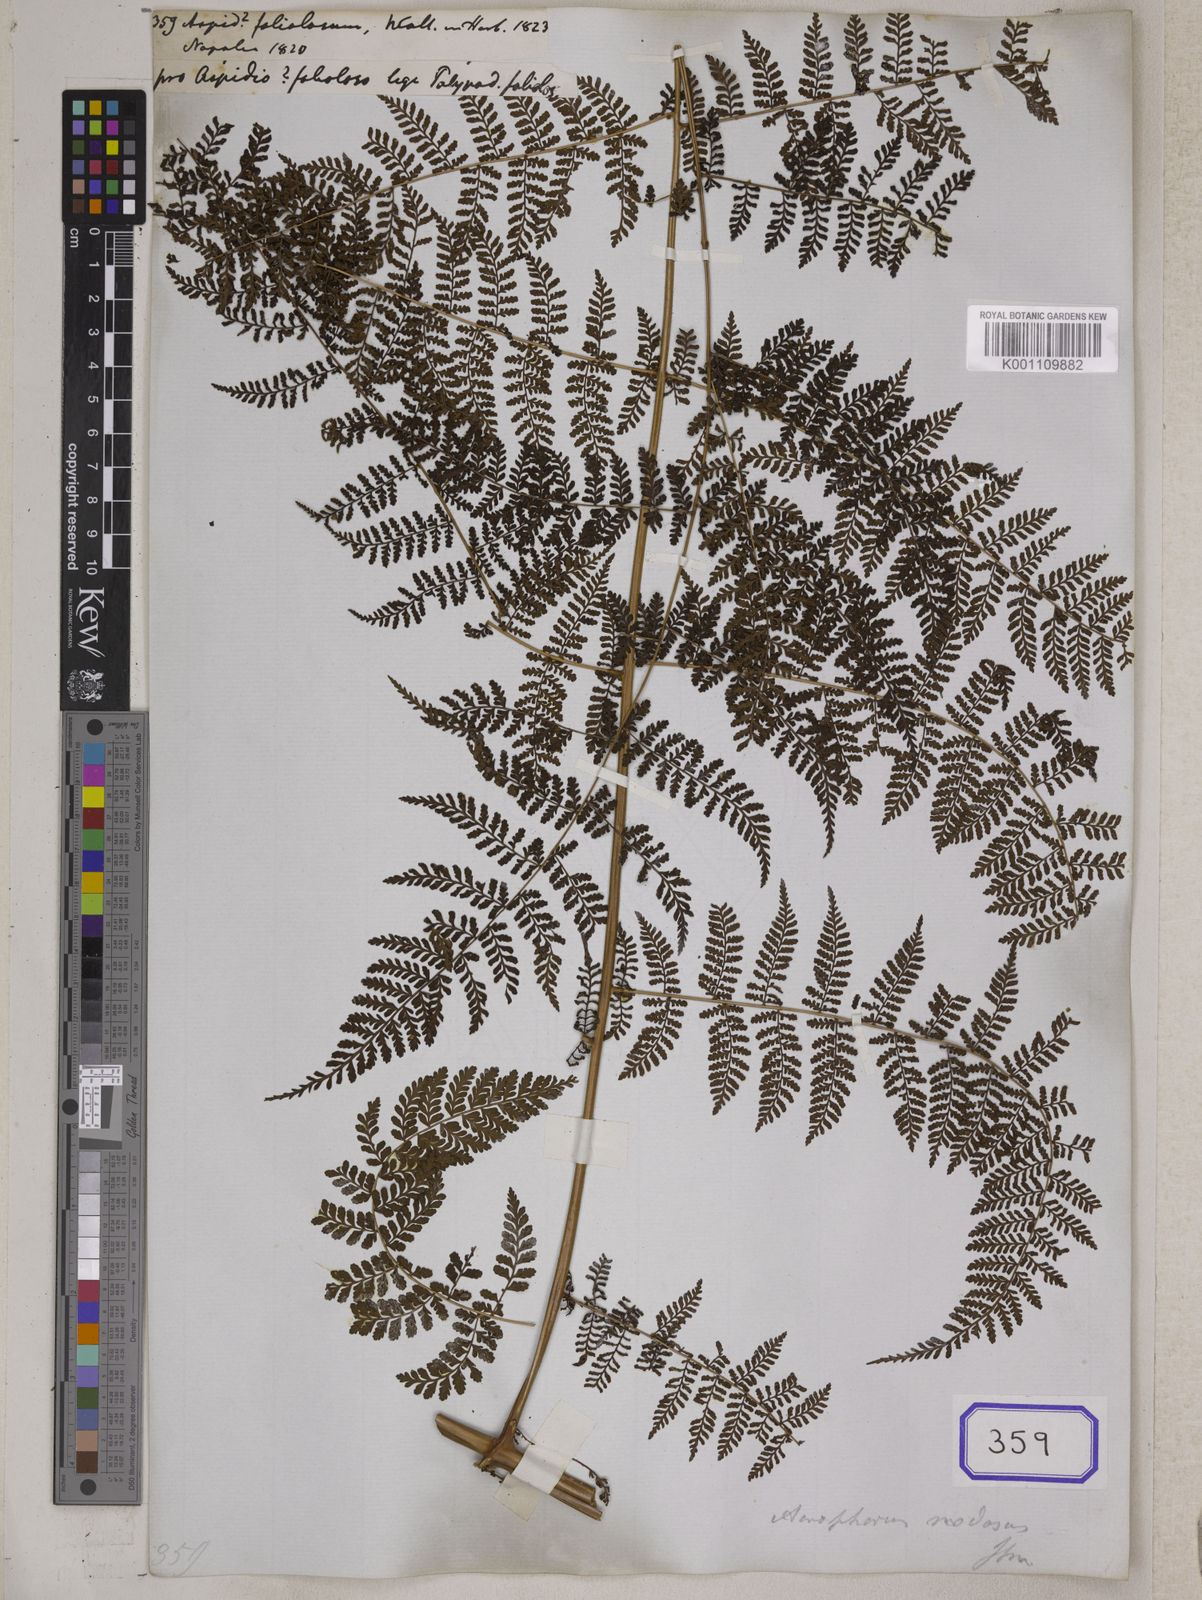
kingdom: Plantae
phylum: Tracheophyta
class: Polypodiopsida
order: Polypodiales
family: Athyriaceae
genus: Athyrium
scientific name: Athyrium foliolosum
